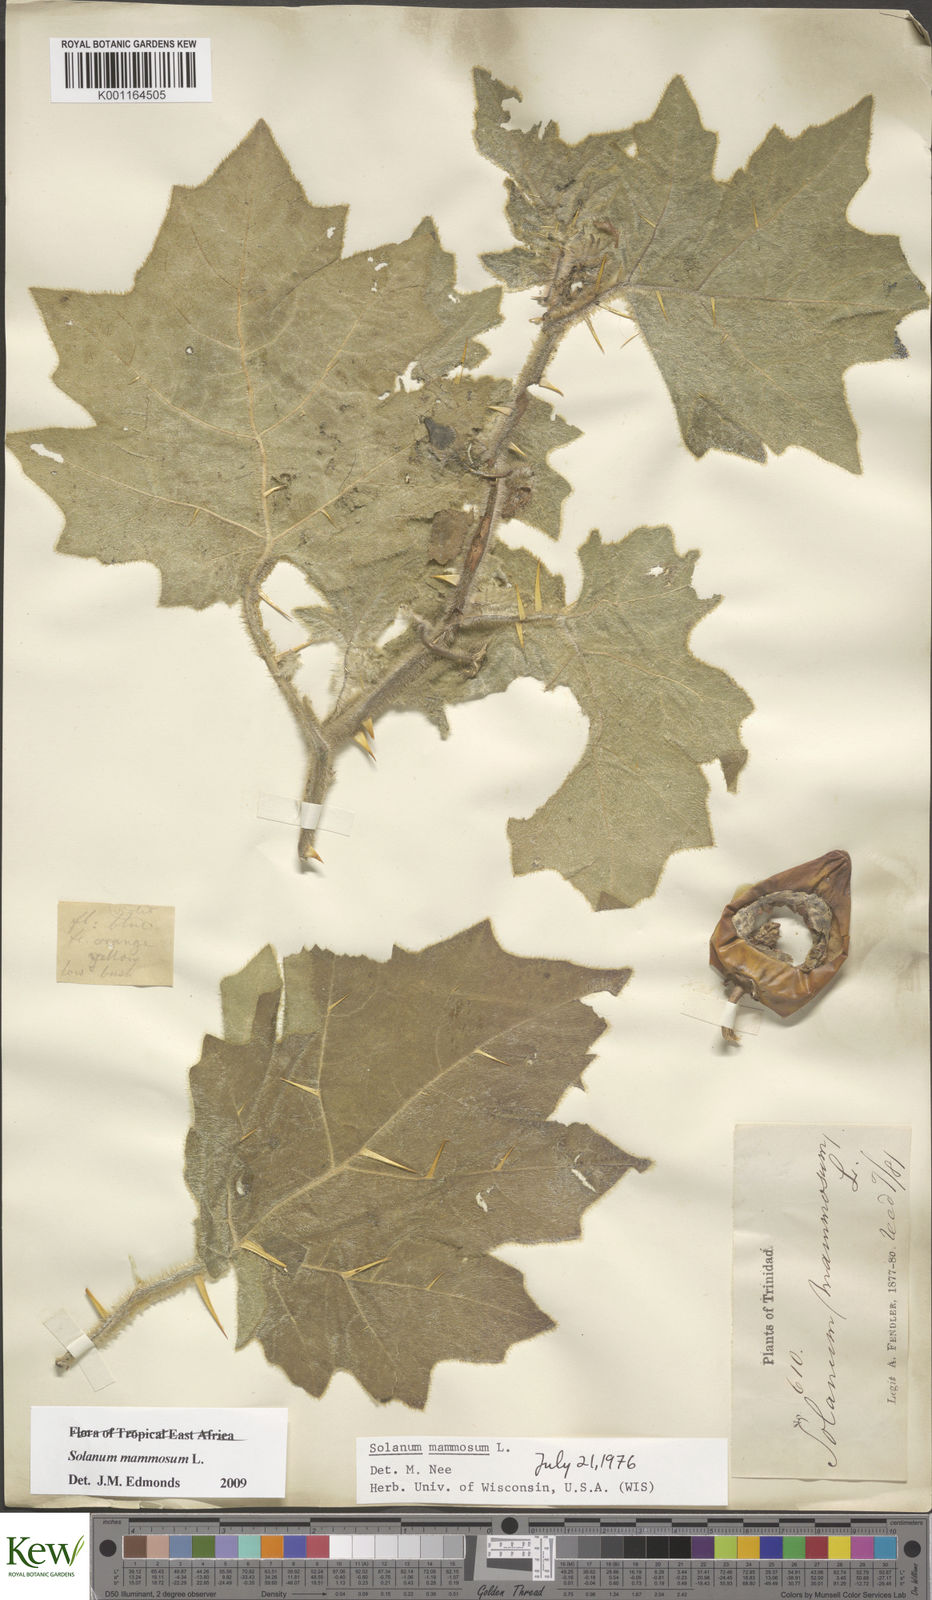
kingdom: Plantae
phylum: Tracheophyta
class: Magnoliopsida
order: Solanales
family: Solanaceae
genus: Solanum
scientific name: Solanum mammosum
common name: Nipple fruit
